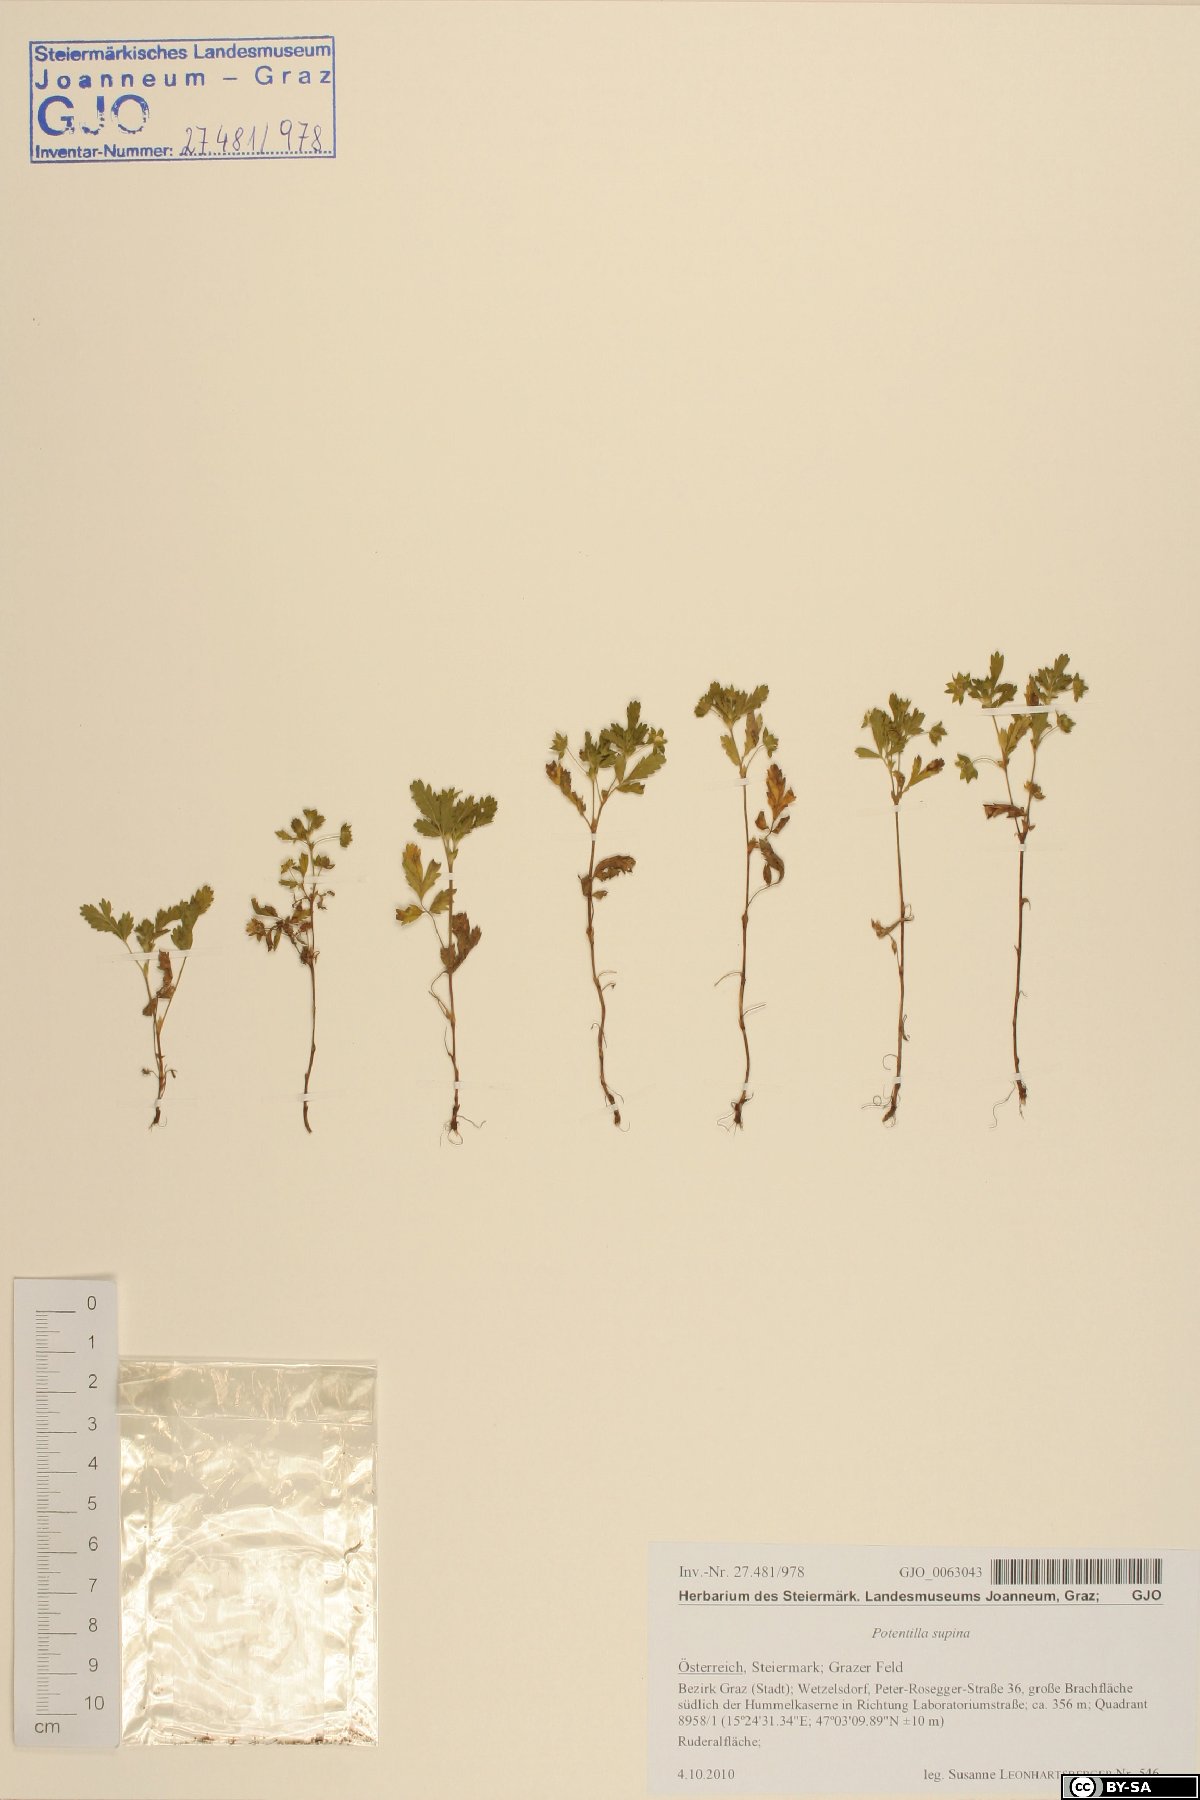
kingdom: Plantae
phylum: Tracheophyta
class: Magnoliopsida
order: Rosales
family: Rosaceae
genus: Potentilla
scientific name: Potentilla supina
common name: Prostrate cinquefoil
